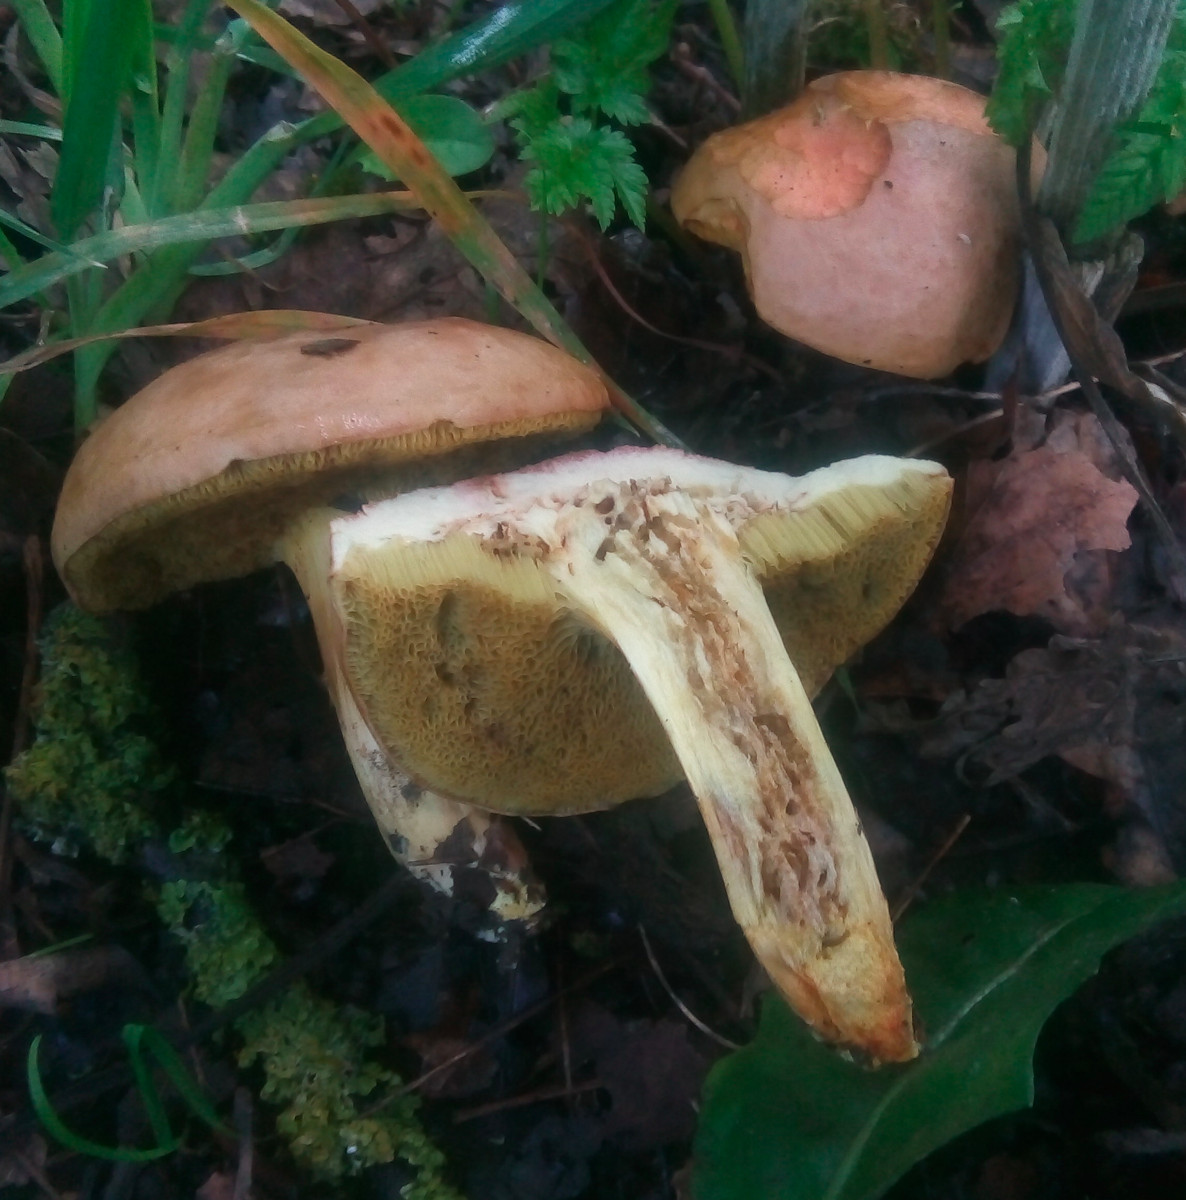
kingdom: Fungi
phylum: Basidiomycota
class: Agaricomycetes
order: Boletales
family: Boletaceae
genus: Hortiboletus
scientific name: Hortiboletus engelii
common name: fersken-rørhat
